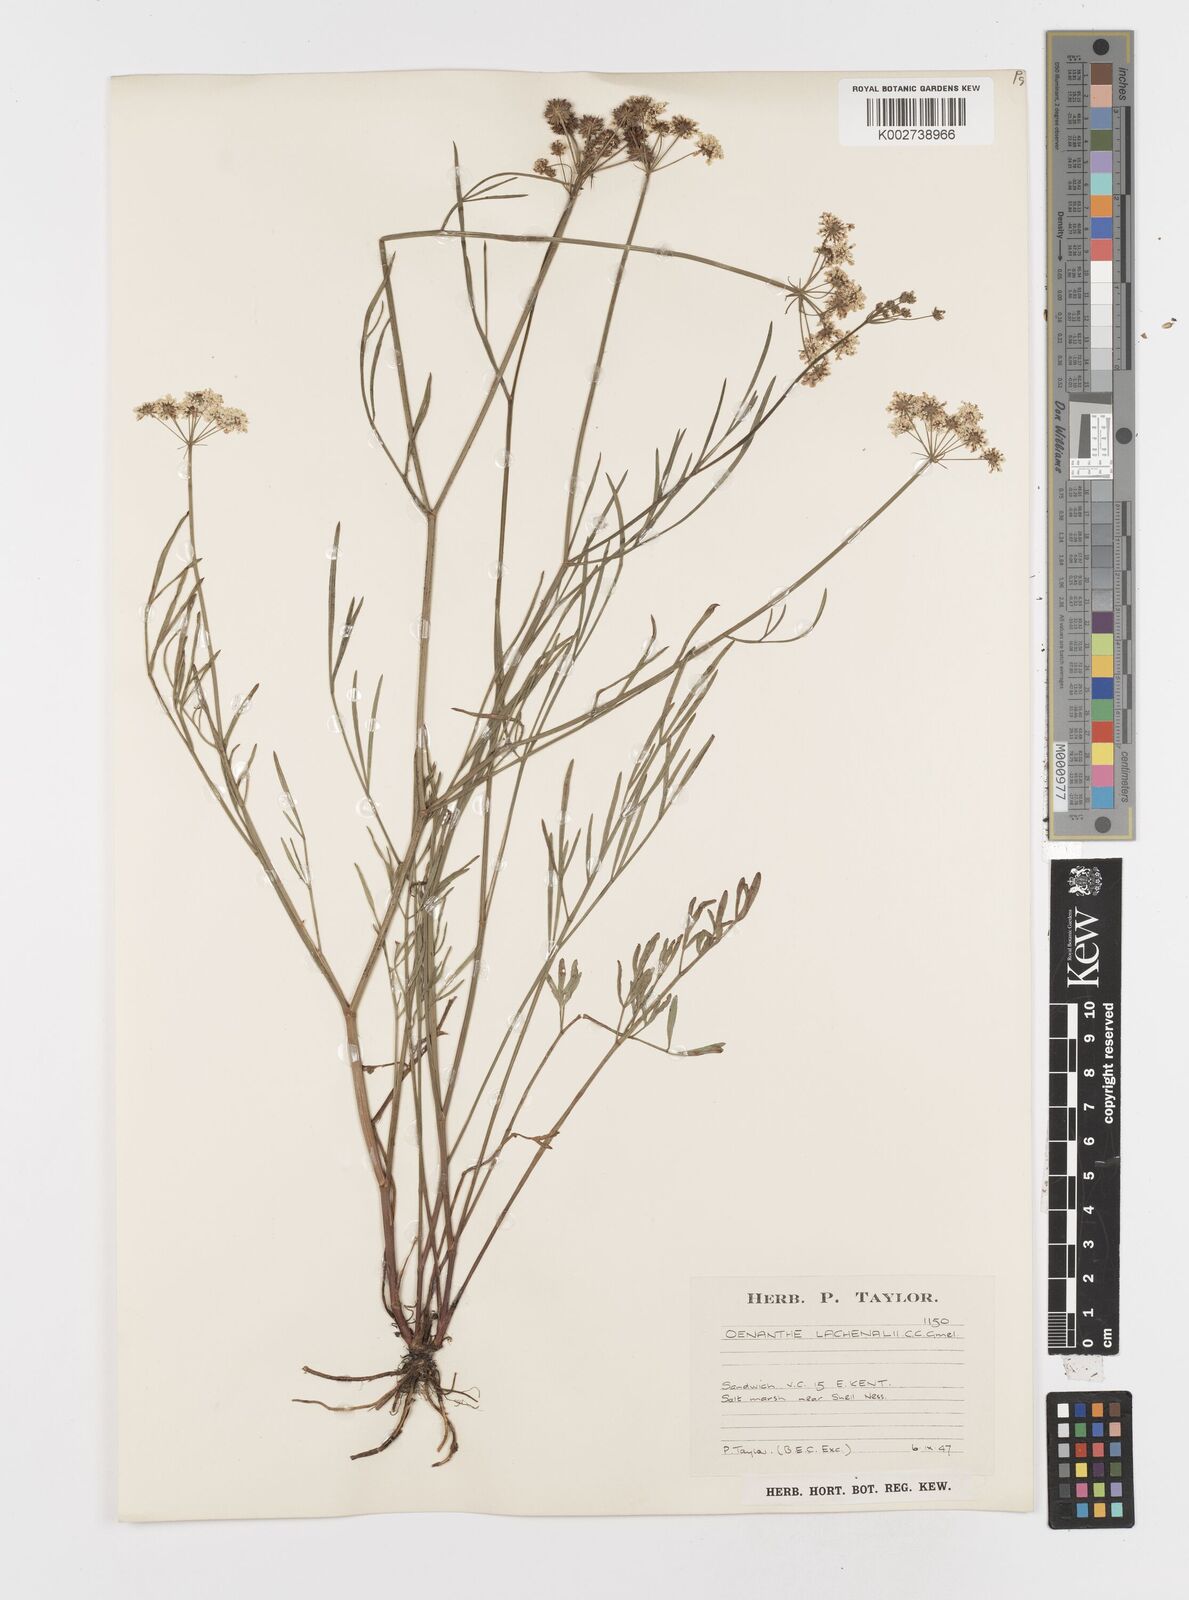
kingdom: Plantae
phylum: Tracheophyta
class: Magnoliopsida
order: Apiales
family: Apiaceae
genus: Oenanthe
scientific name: Oenanthe lachenalii
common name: Parsley water-dropwort
